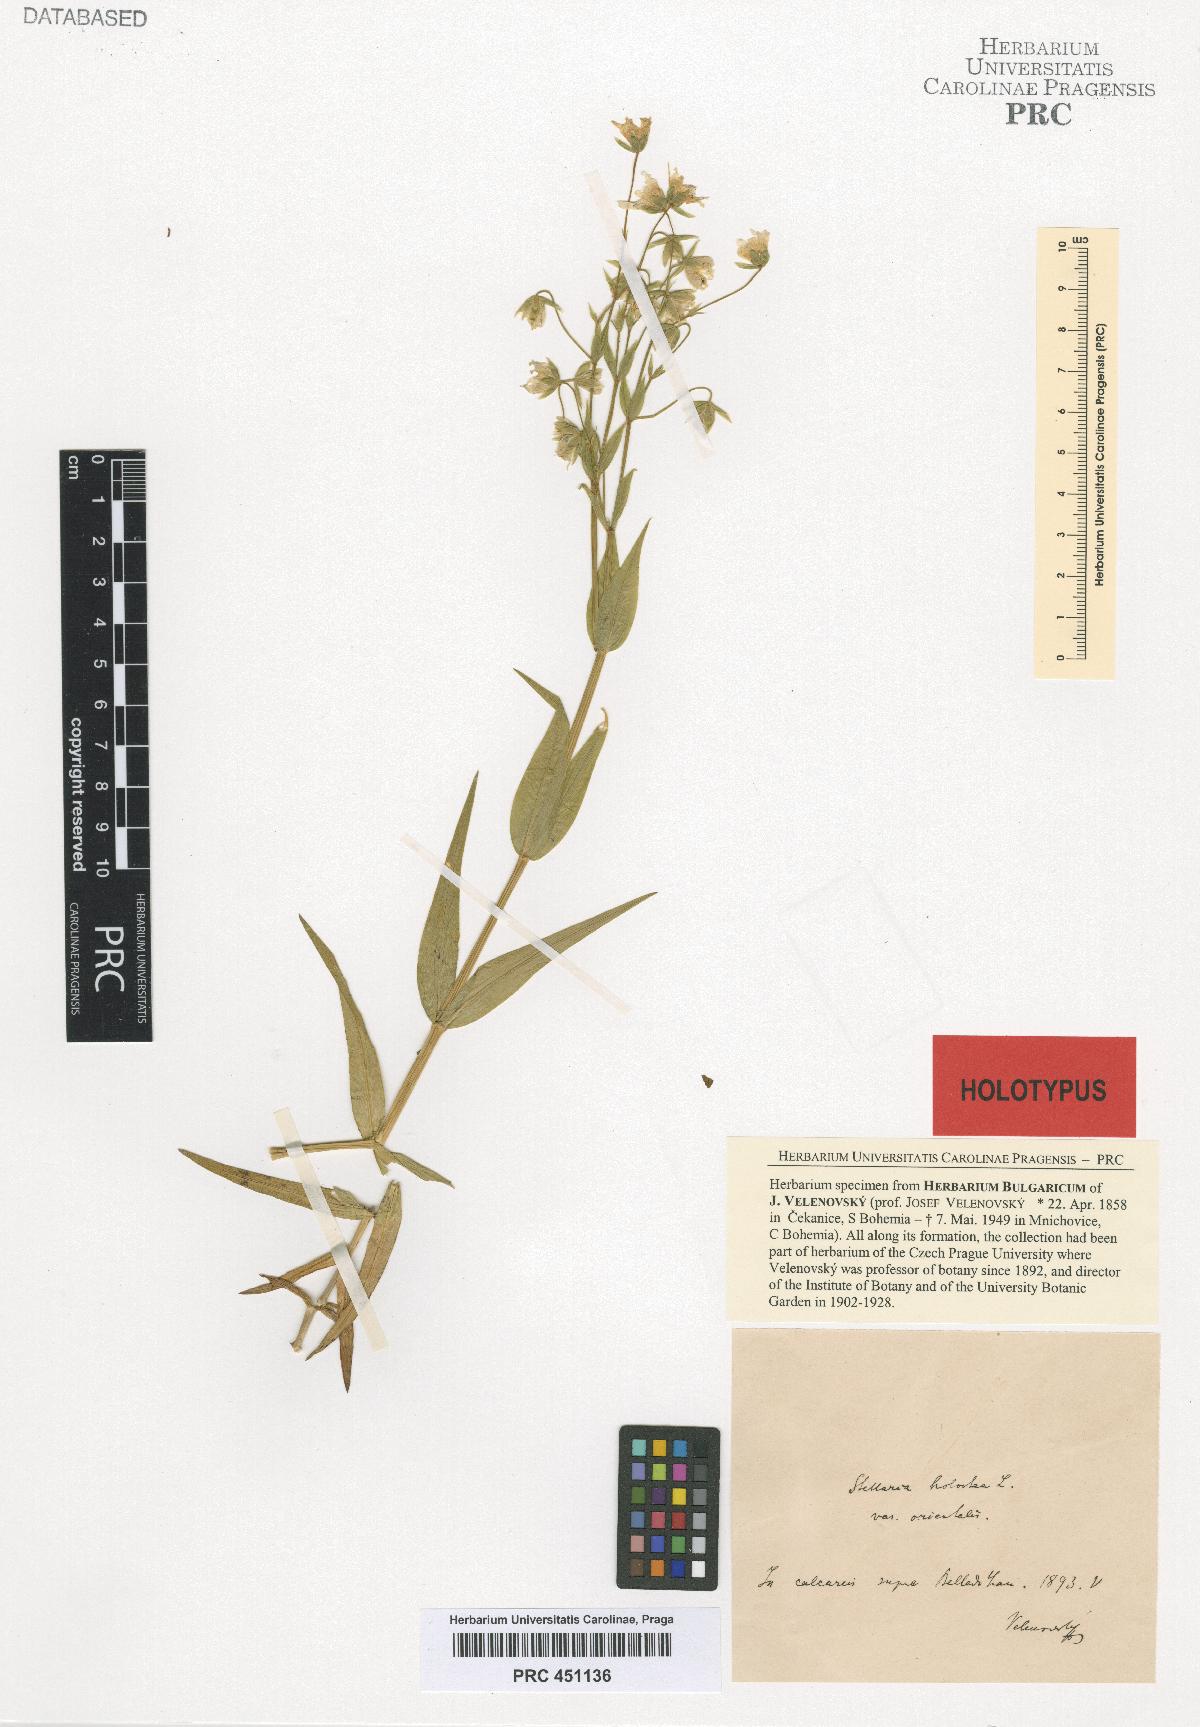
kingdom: Plantae
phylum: Tracheophyta
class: Magnoliopsida
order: Caryophyllales
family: Caryophyllaceae
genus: Rabelera
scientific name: Rabelera holostea
